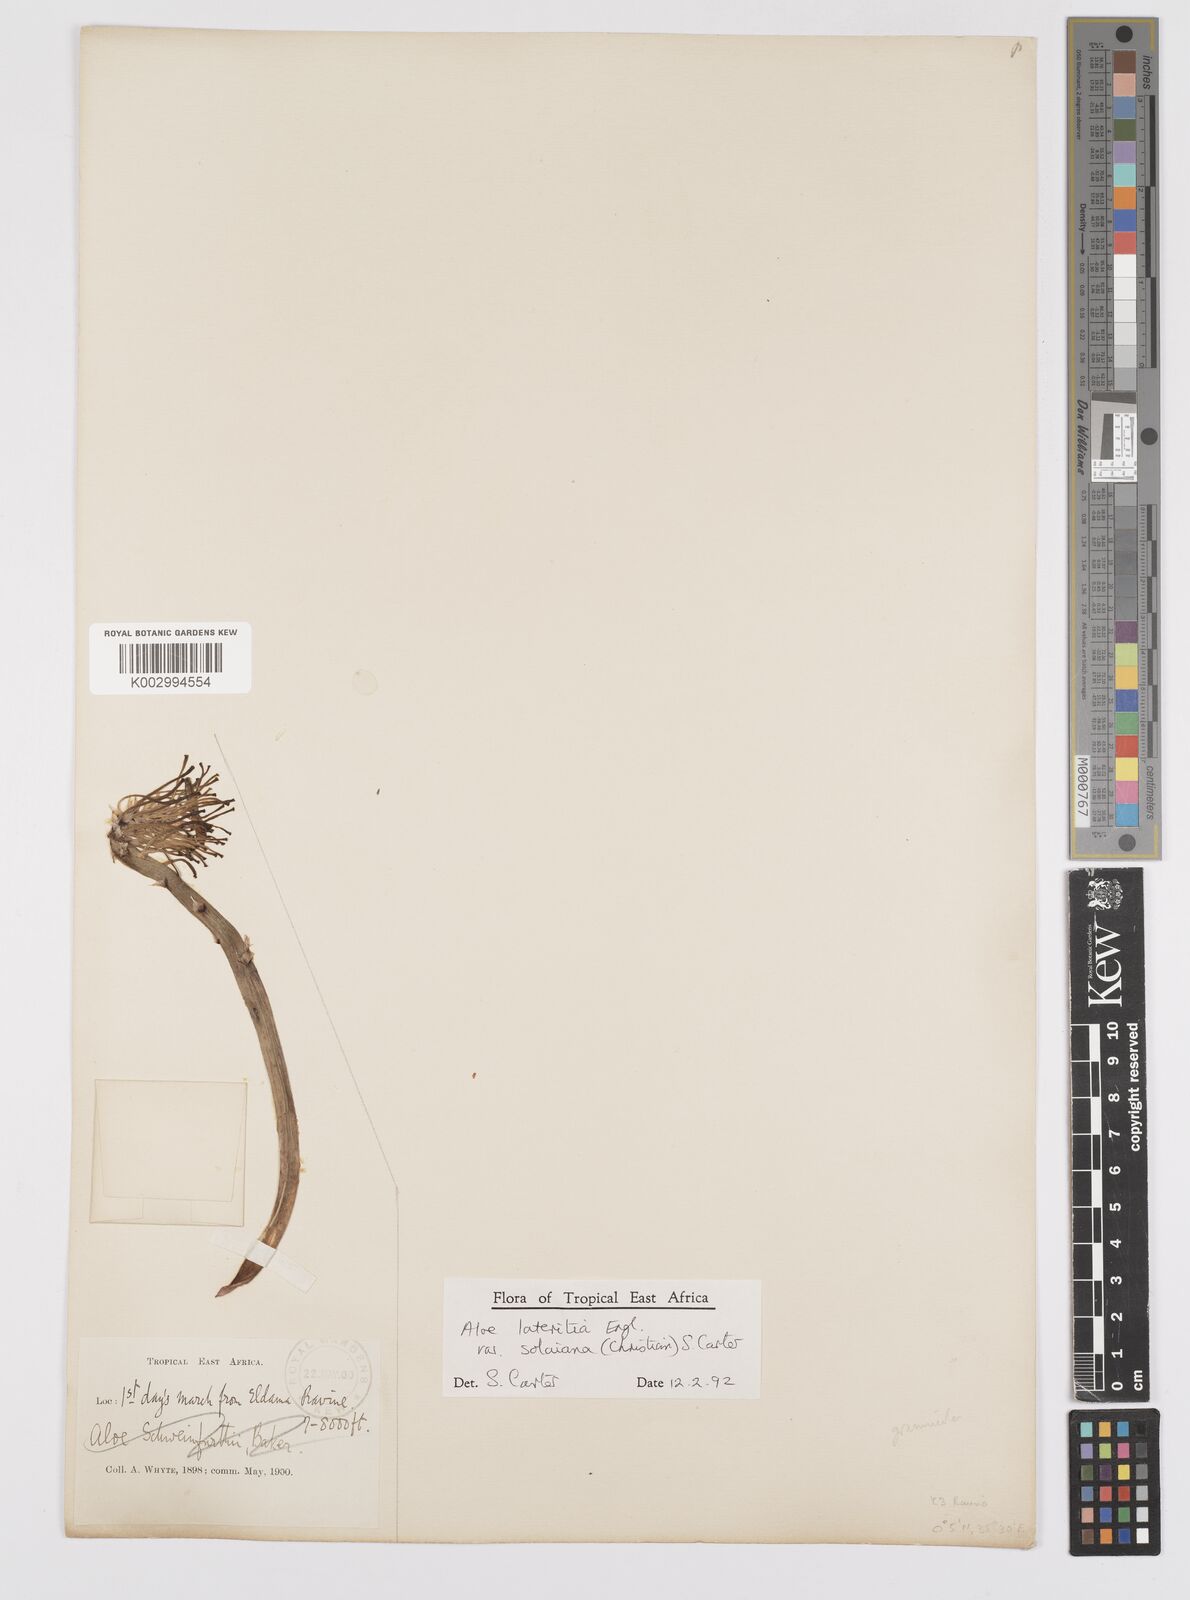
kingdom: Plantae
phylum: Tracheophyta
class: Liliopsida
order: Asparagales
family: Asphodelaceae
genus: Aloe
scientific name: Aloe lateritia
